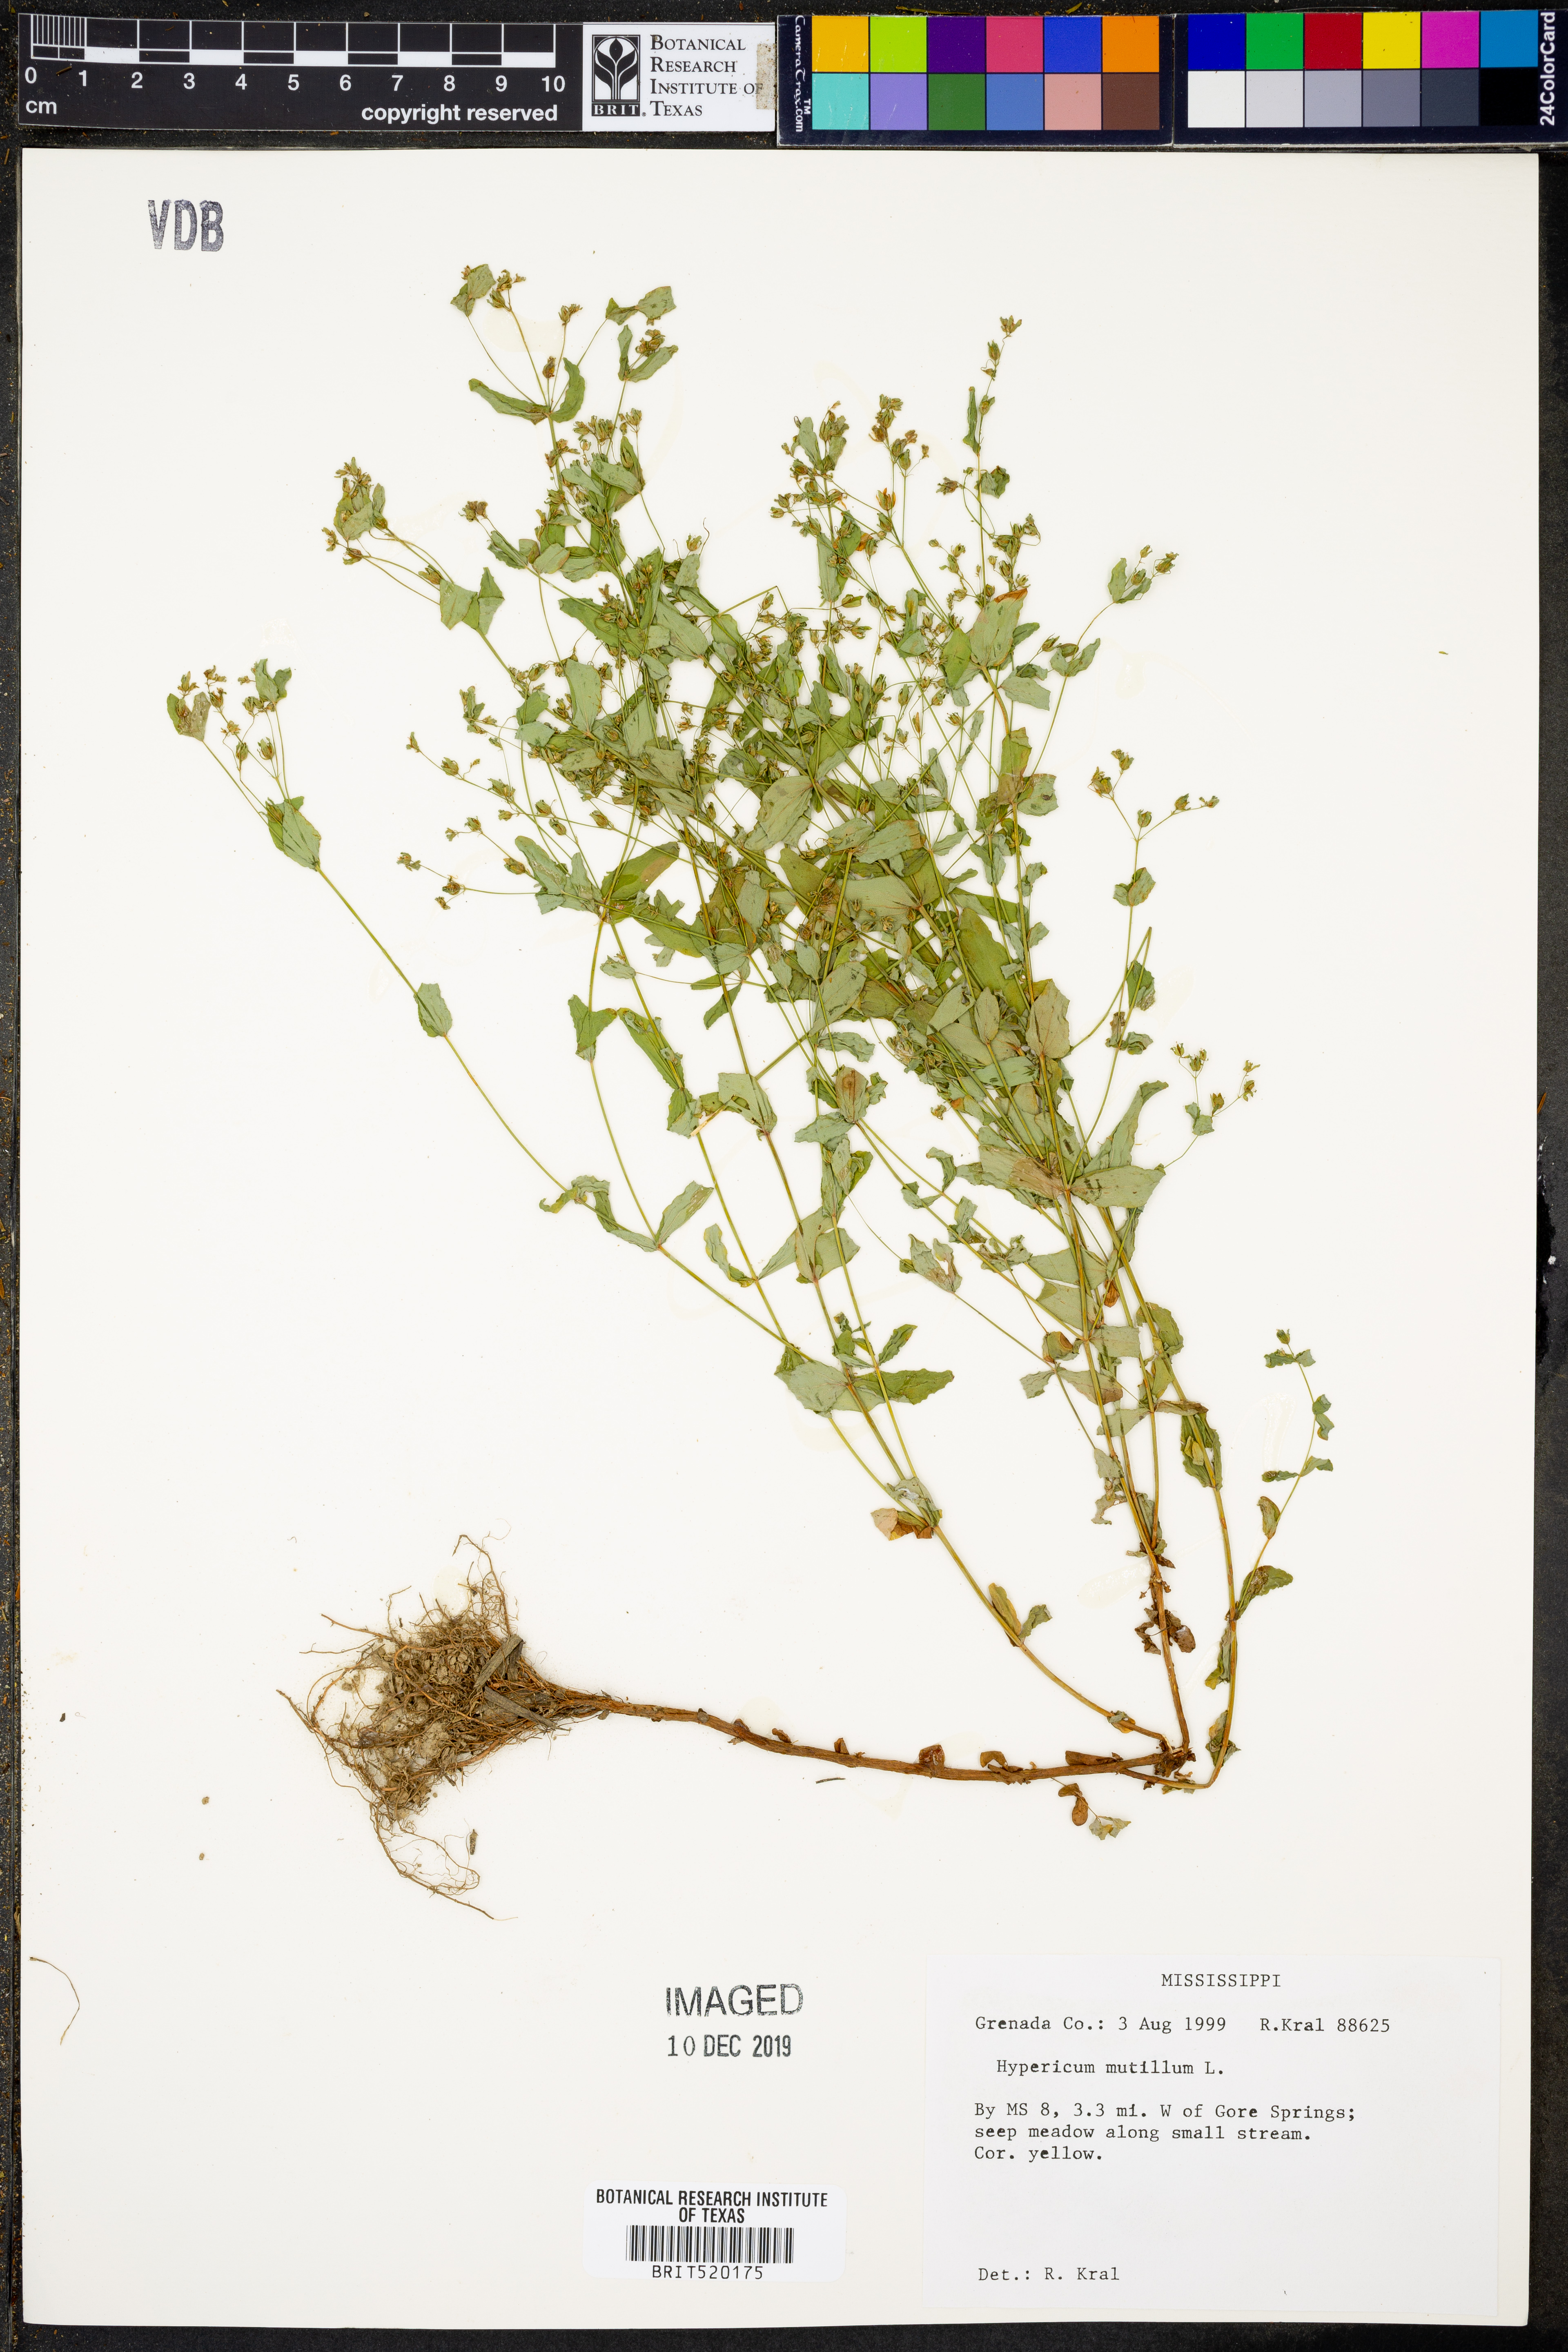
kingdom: Plantae
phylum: Tracheophyta
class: Magnoliopsida
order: Malpighiales
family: Hypericaceae
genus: Hypericum
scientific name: Hypericum mutilum
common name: Dwarf st. john's-wort
